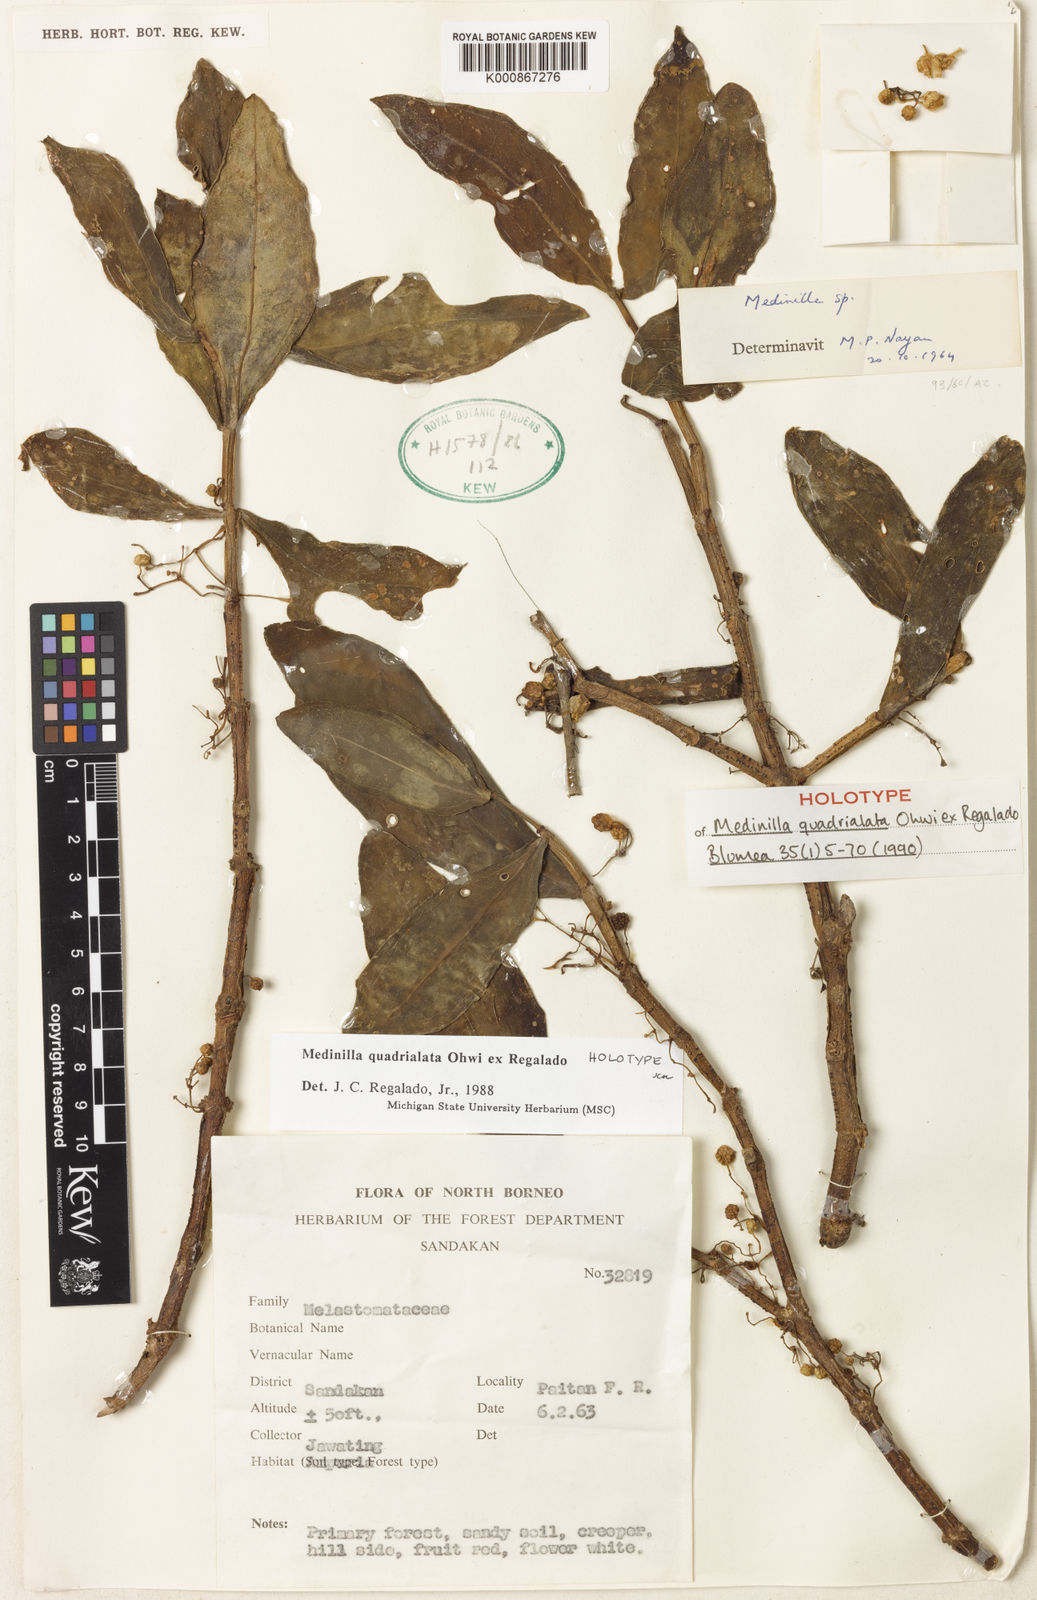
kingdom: Plantae
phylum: Tracheophyta
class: Magnoliopsida
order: Myrtales
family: Melastomataceae
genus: Medinilla
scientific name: Medinilla quadrialata
